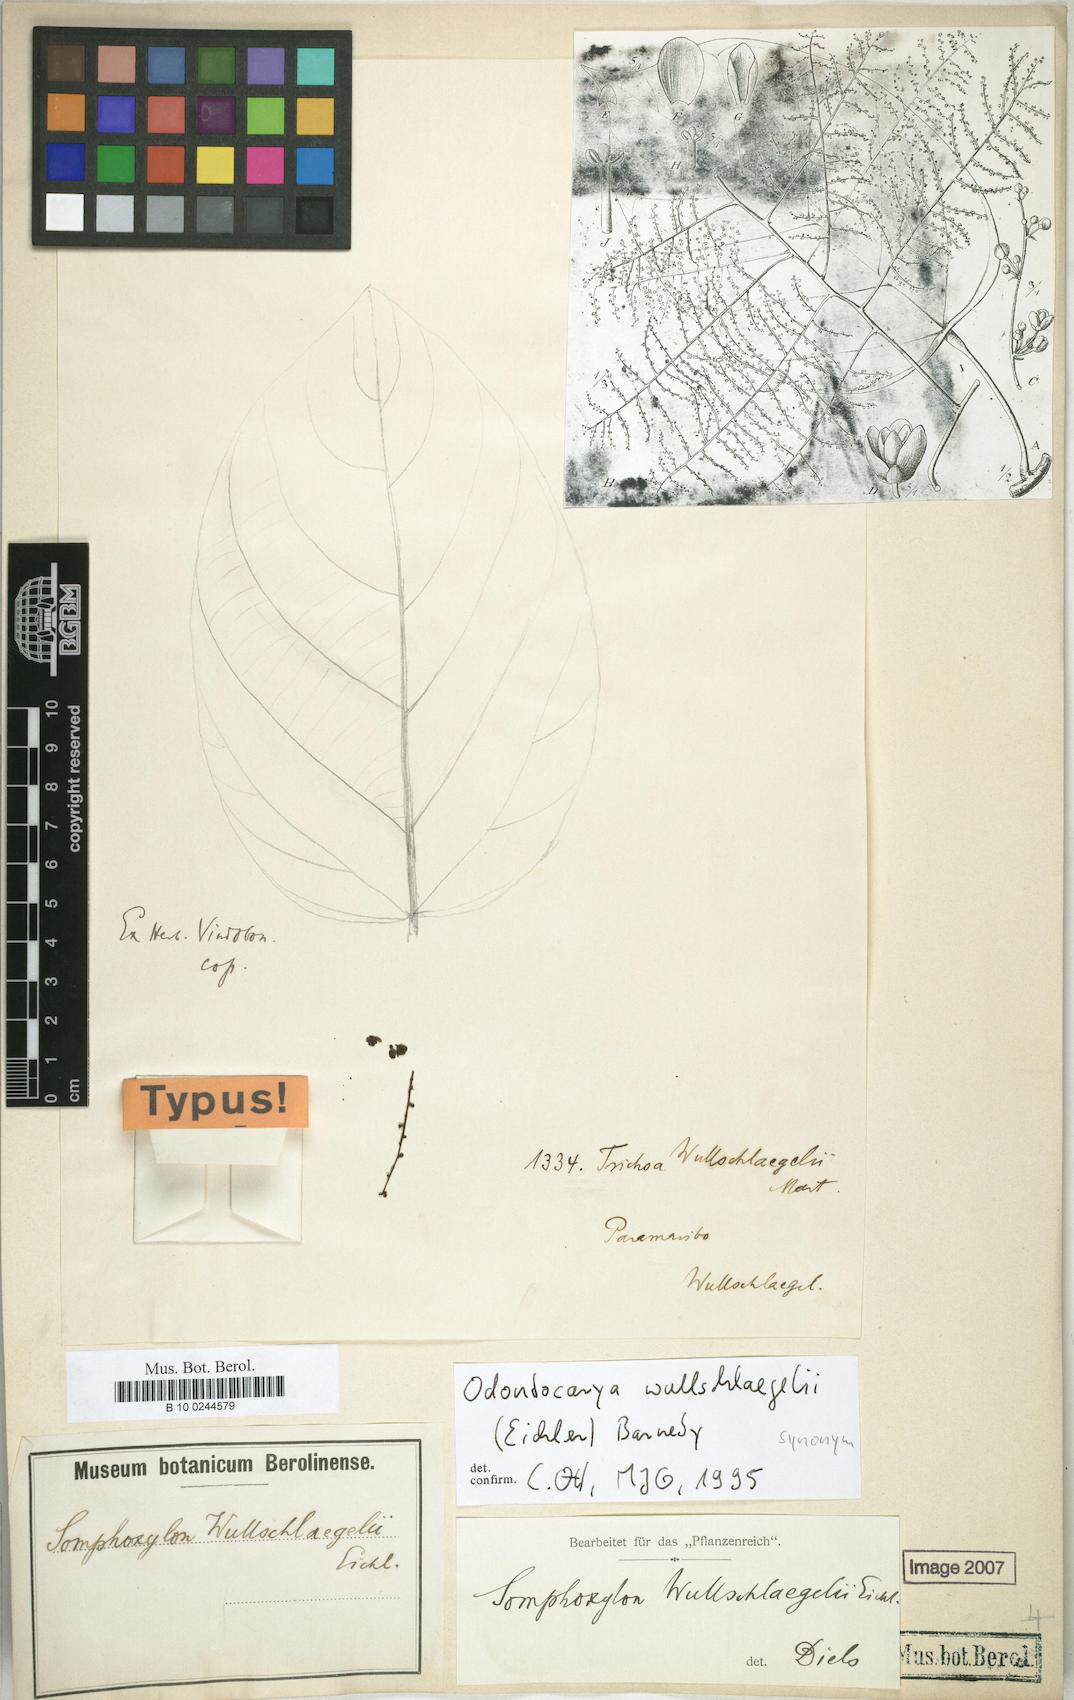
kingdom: Plantae
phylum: Tracheophyta
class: Magnoliopsida
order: Ranunculales
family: Menispermaceae
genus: Odontocarya
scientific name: Odontocarya wullschlaegelii
